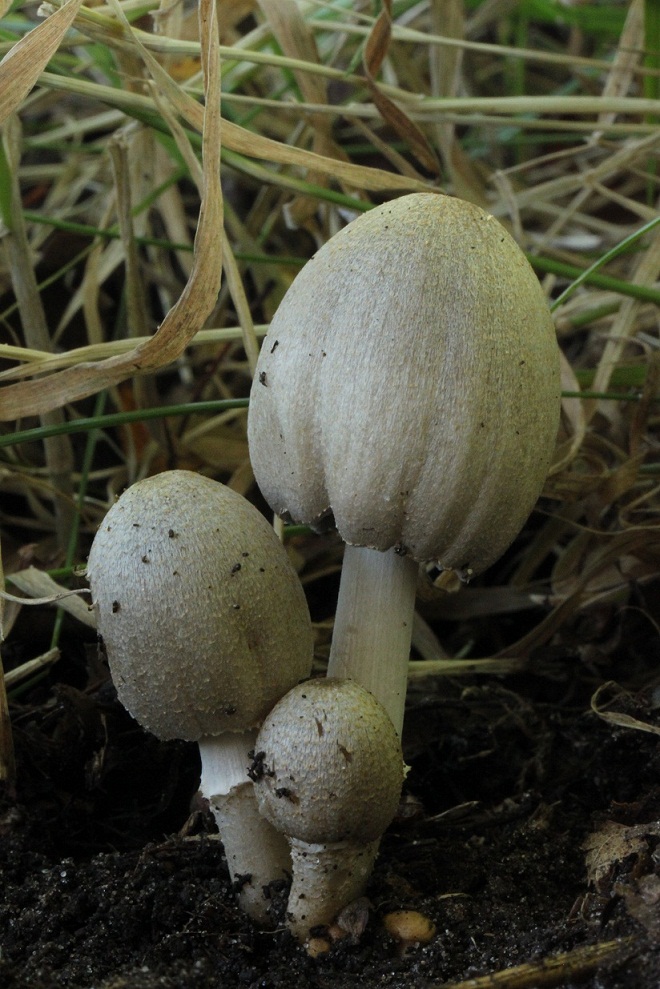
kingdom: Fungi
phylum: Basidiomycota
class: Agaricomycetes
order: Agaricales
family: Psathyrellaceae
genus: Coprinopsis
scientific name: Coprinopsis atramentaria
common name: almindelig blækhat
